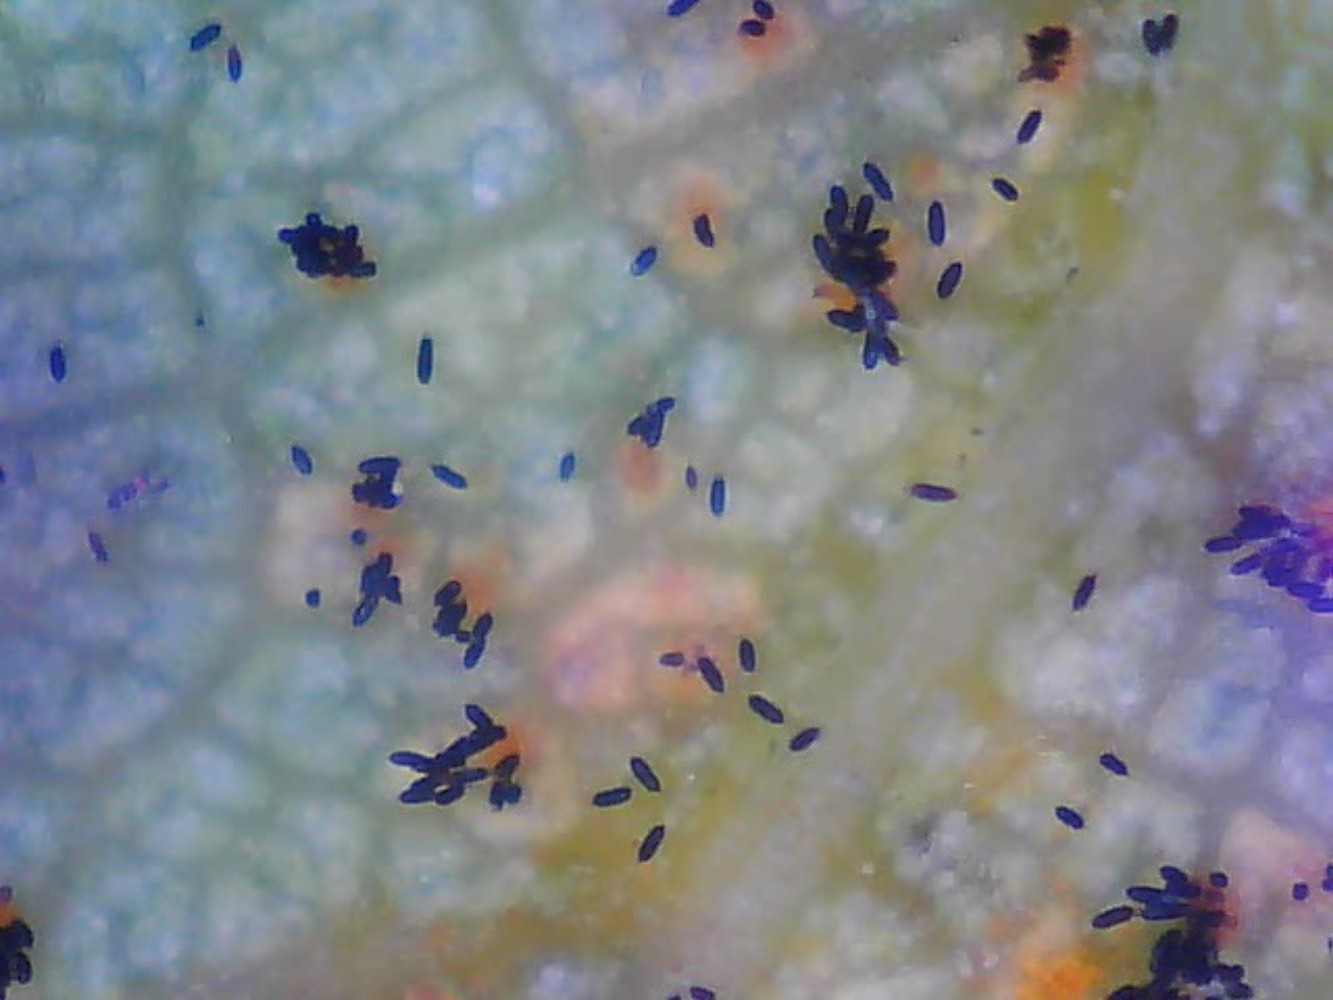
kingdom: Fungi
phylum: Basidiomycota
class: Pucciniomycetes
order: Pucciniales
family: Phragmidiaceae
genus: Phragmidium
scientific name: Phragmidium mucronatum
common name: rose-flercellerust
